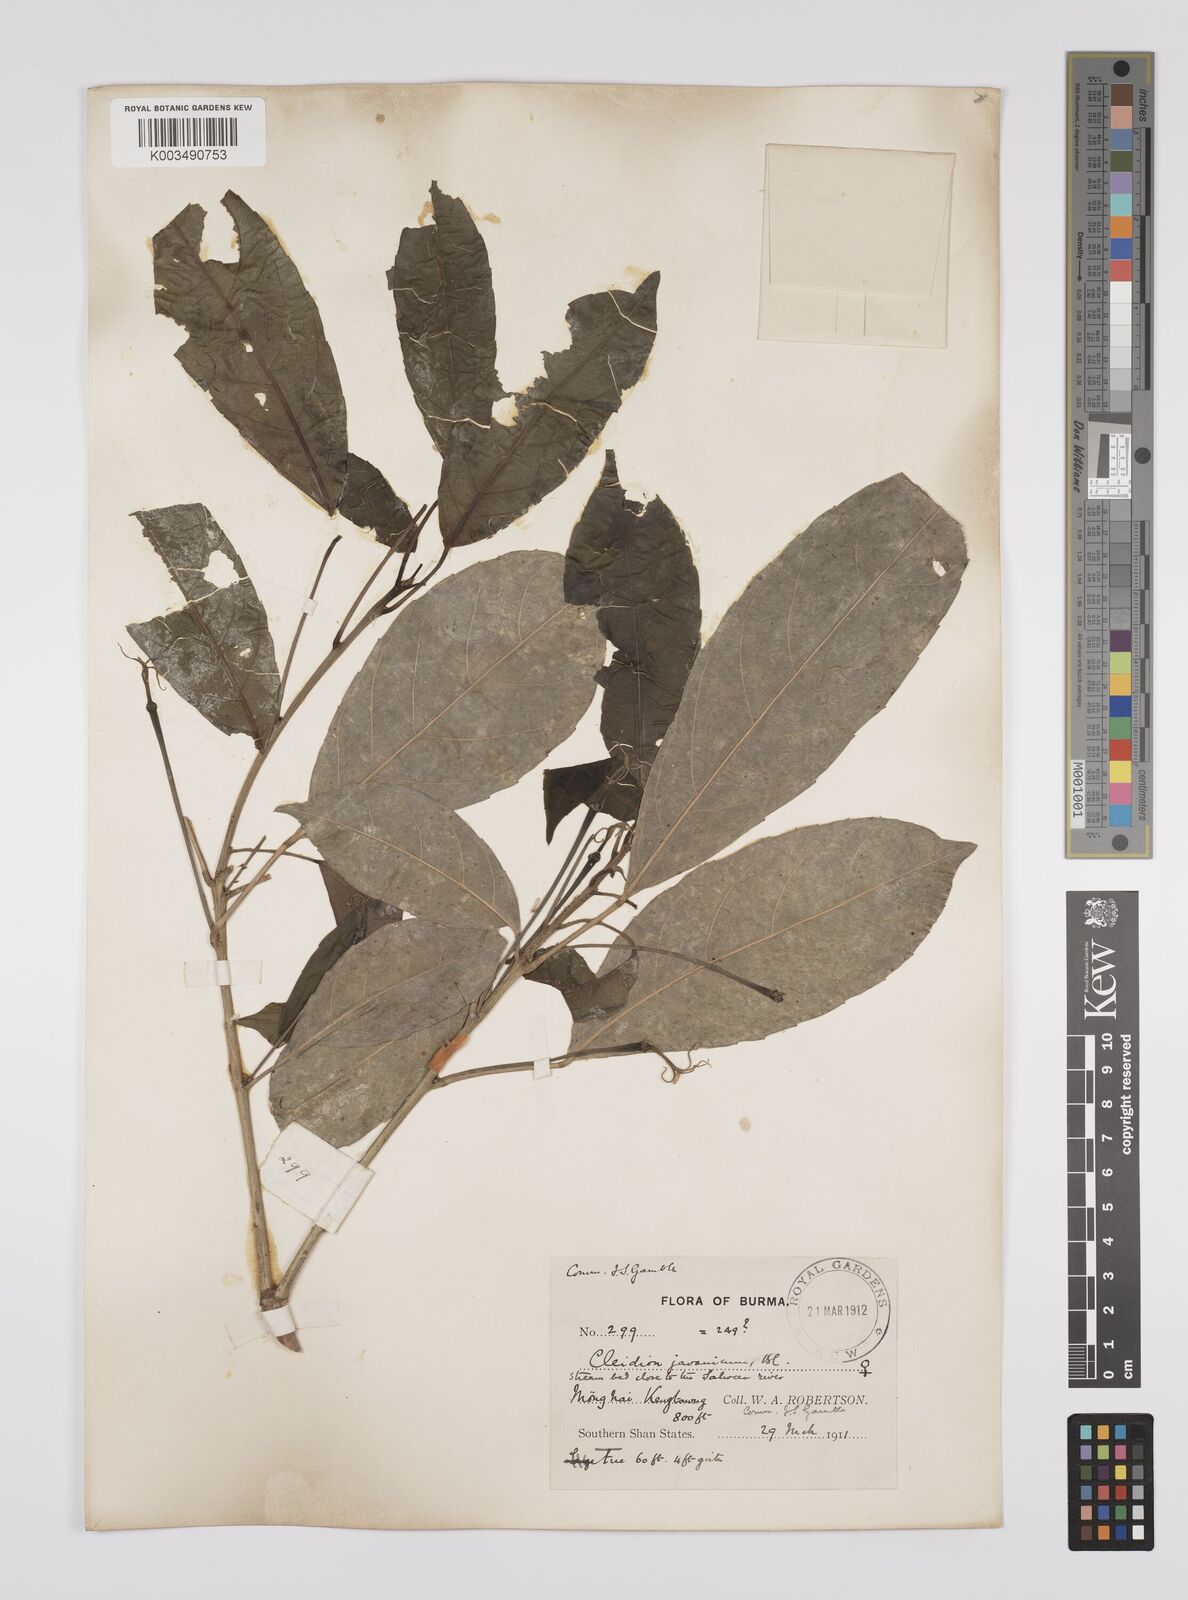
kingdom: Plantae
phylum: Tracheophyta
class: Magnoliopsida
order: Malpighiales
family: Euphorbiaceae
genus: Acalypha
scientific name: Acalypha spiciflora
